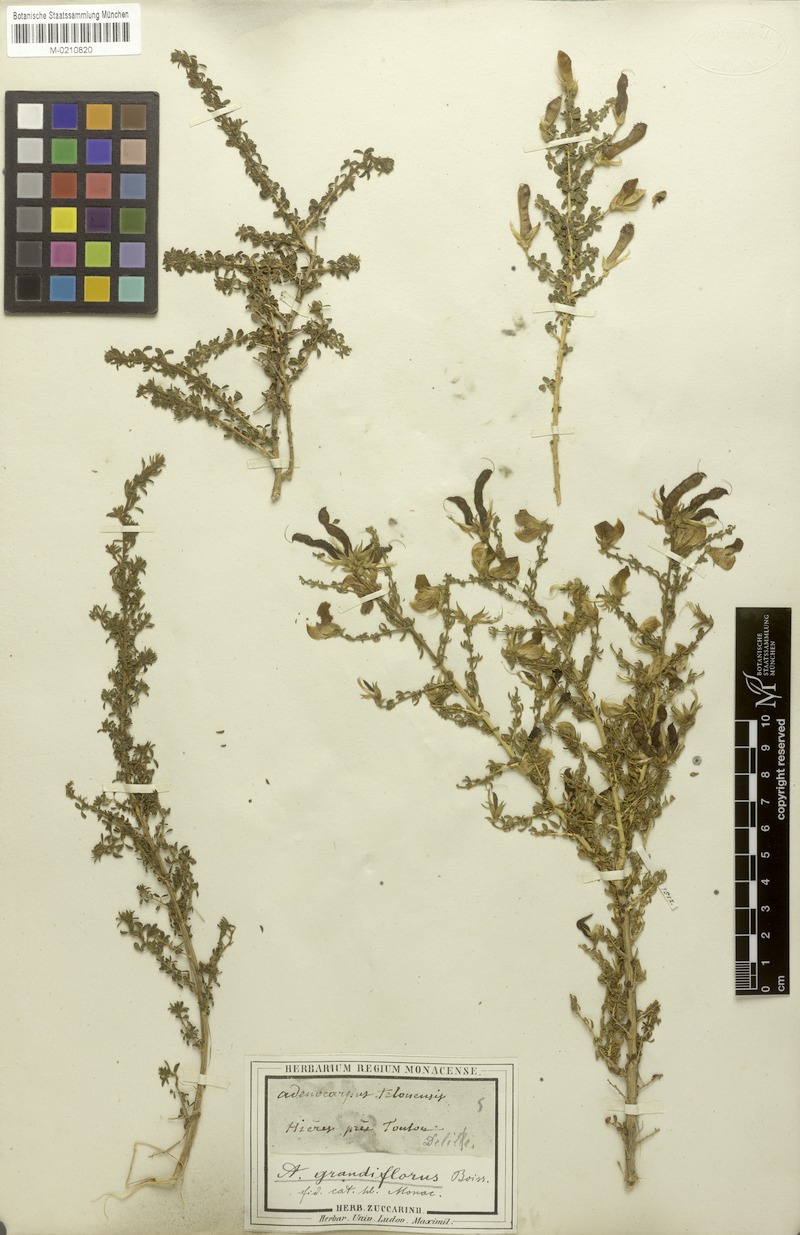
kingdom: Plantae
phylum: Tracheophyta
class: Magnoliopsida
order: Fabales
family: Fabaceae
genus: Adenocarpus
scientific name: Adenocarpus telonensis
